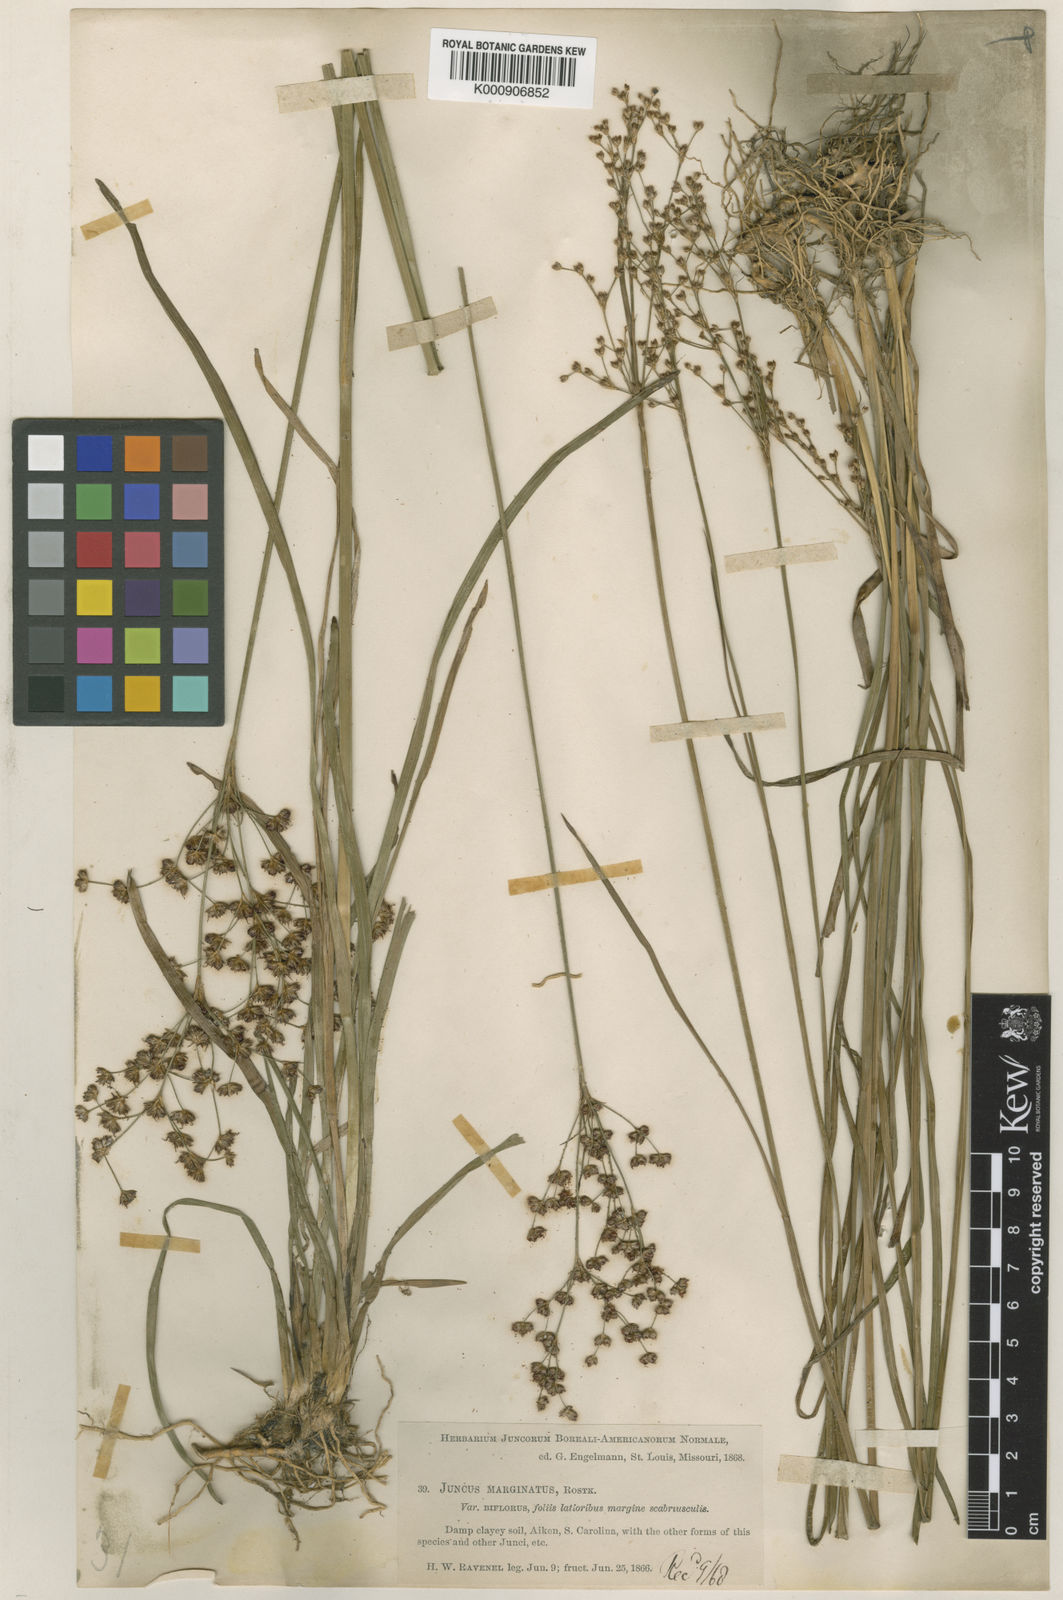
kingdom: Plantae
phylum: Tracheophyta
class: Liliopsida
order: Poales
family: Juncaceae
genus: Juncus
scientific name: Juncus biflorus
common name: Two-flowered rush
